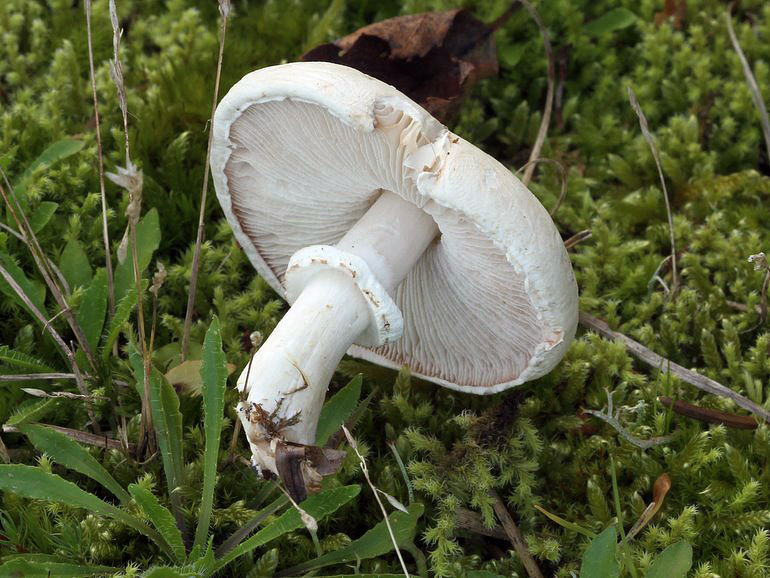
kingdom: Fungi
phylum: Basidiomycota
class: Agaricomycetes
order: Agaricales
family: Agaricaceae
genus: Leucoagaricus
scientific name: Leucoagaricus leucothites
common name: rosabladet silkehat
